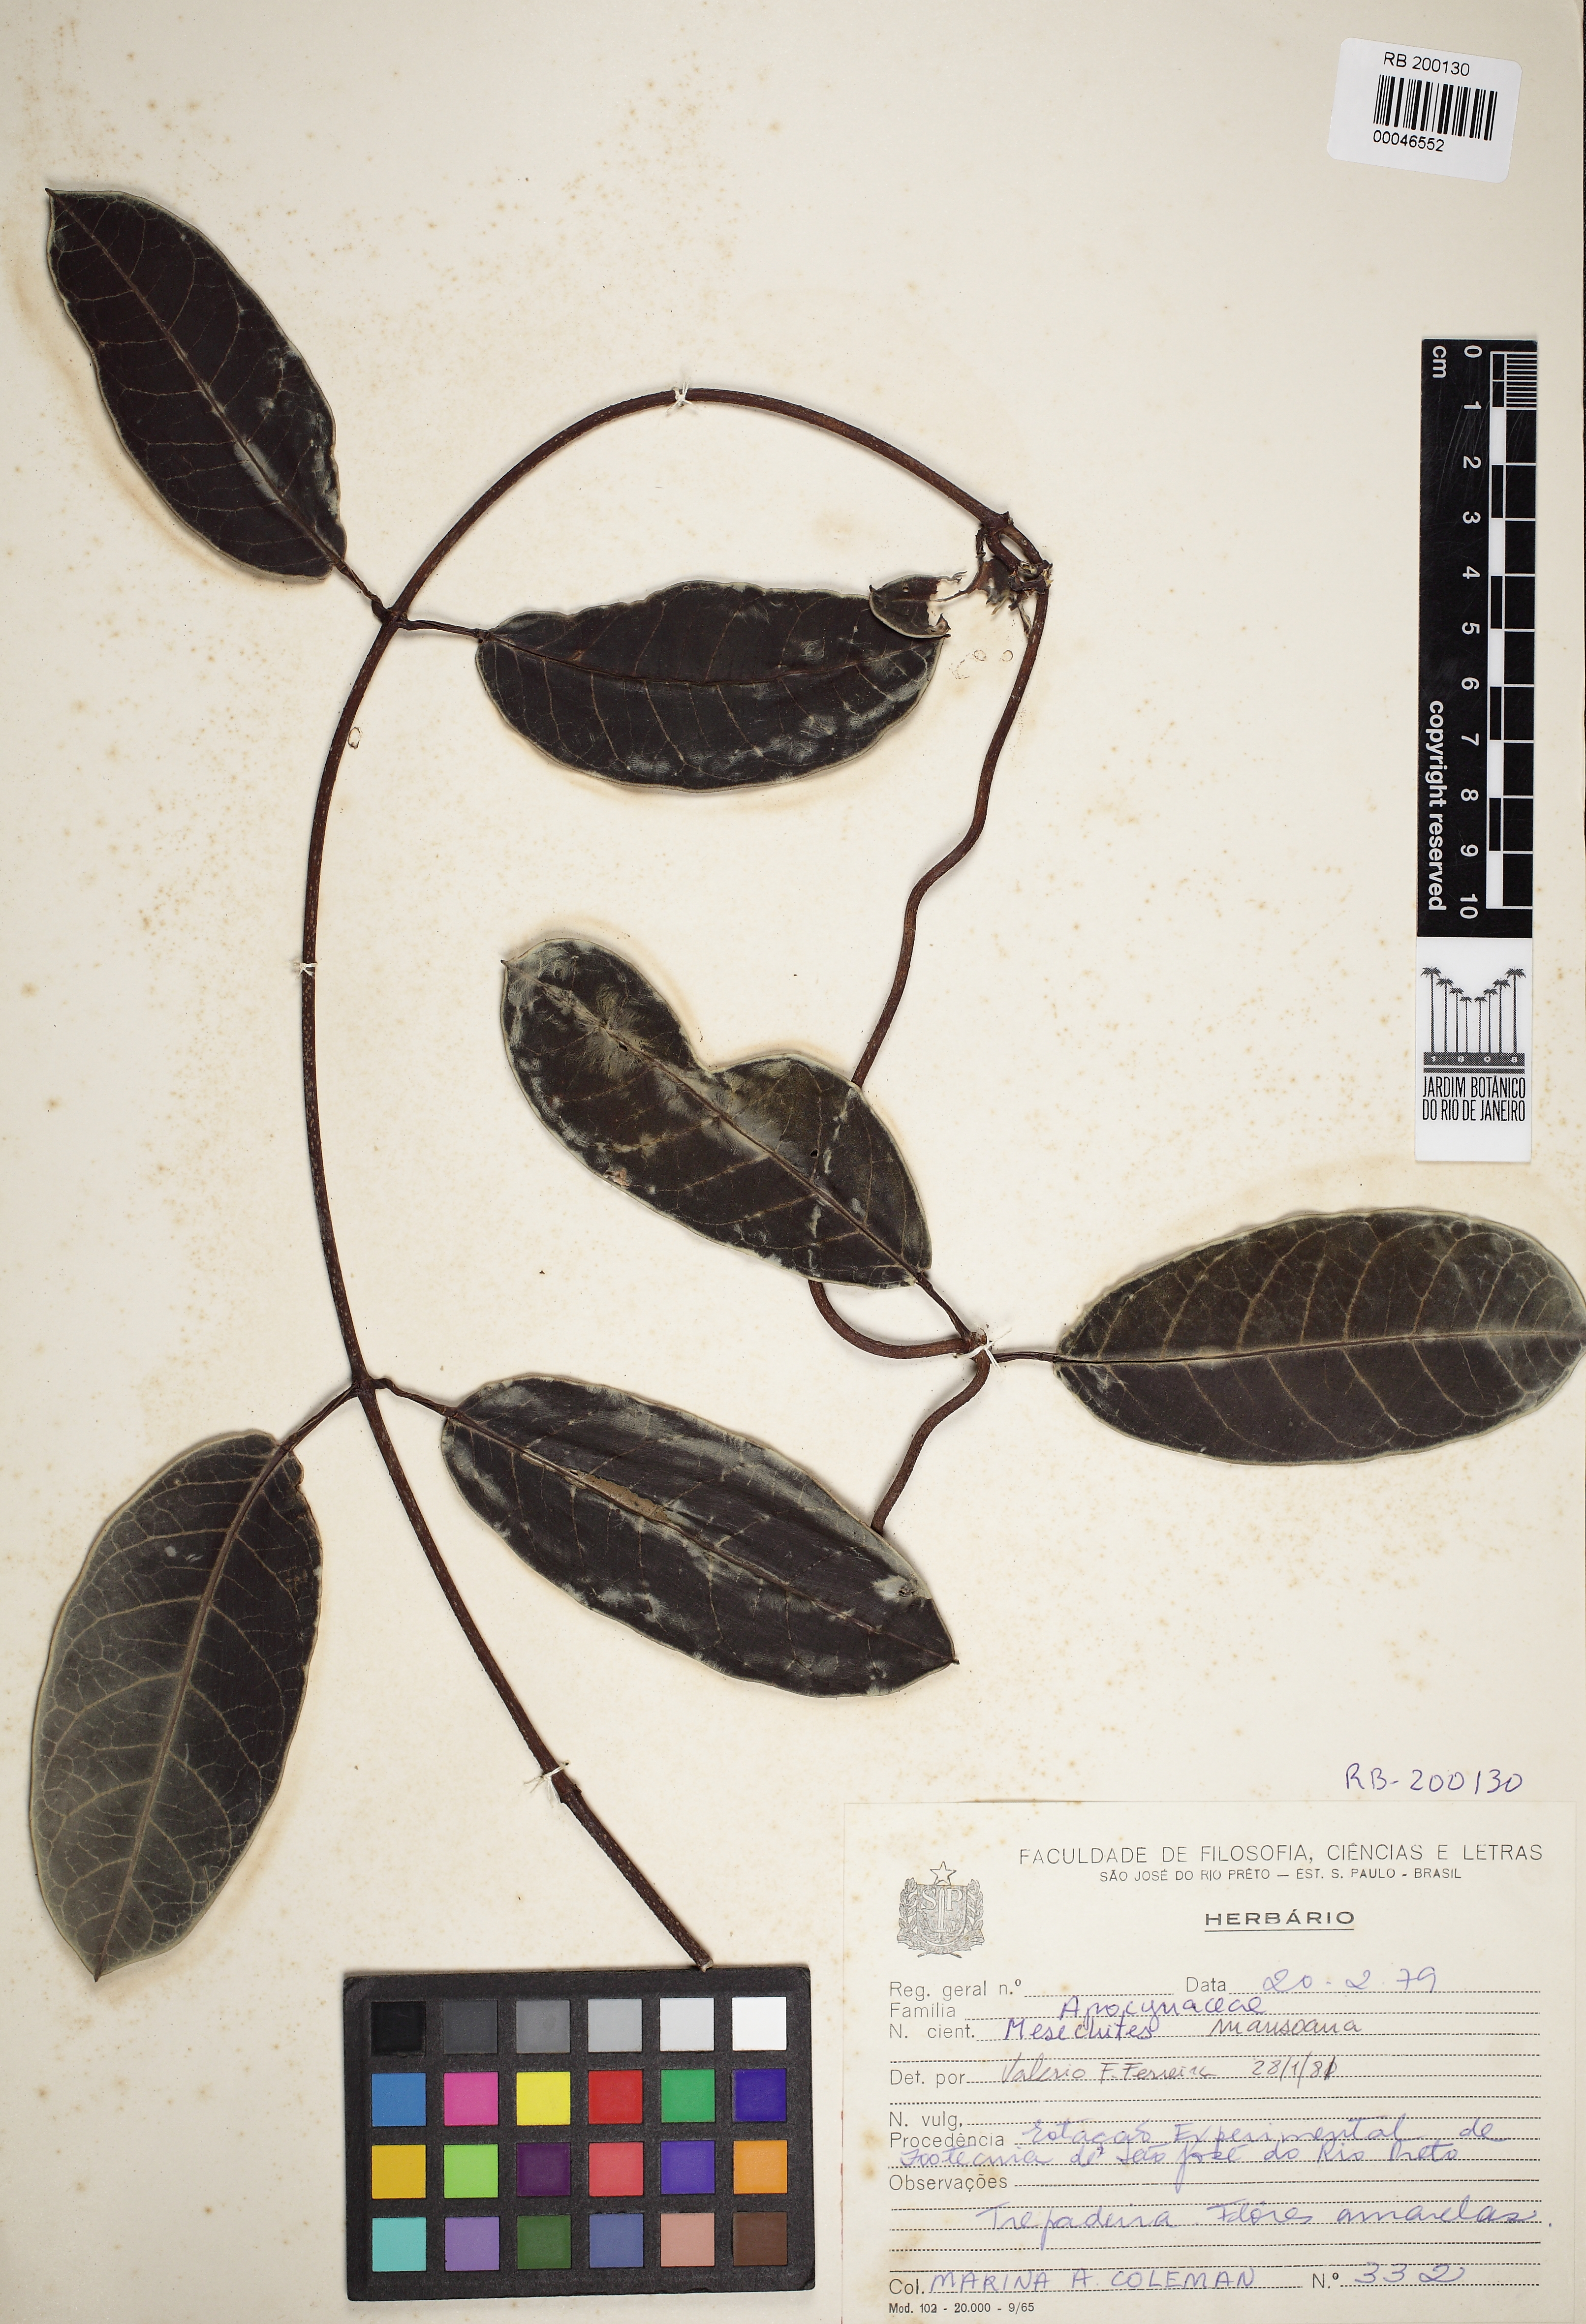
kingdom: Plantae
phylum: Tracheophyta
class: Magnoliopsida
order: Gentianales
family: Apocynaceae
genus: Mesechites
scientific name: Mesechites mansoanus
